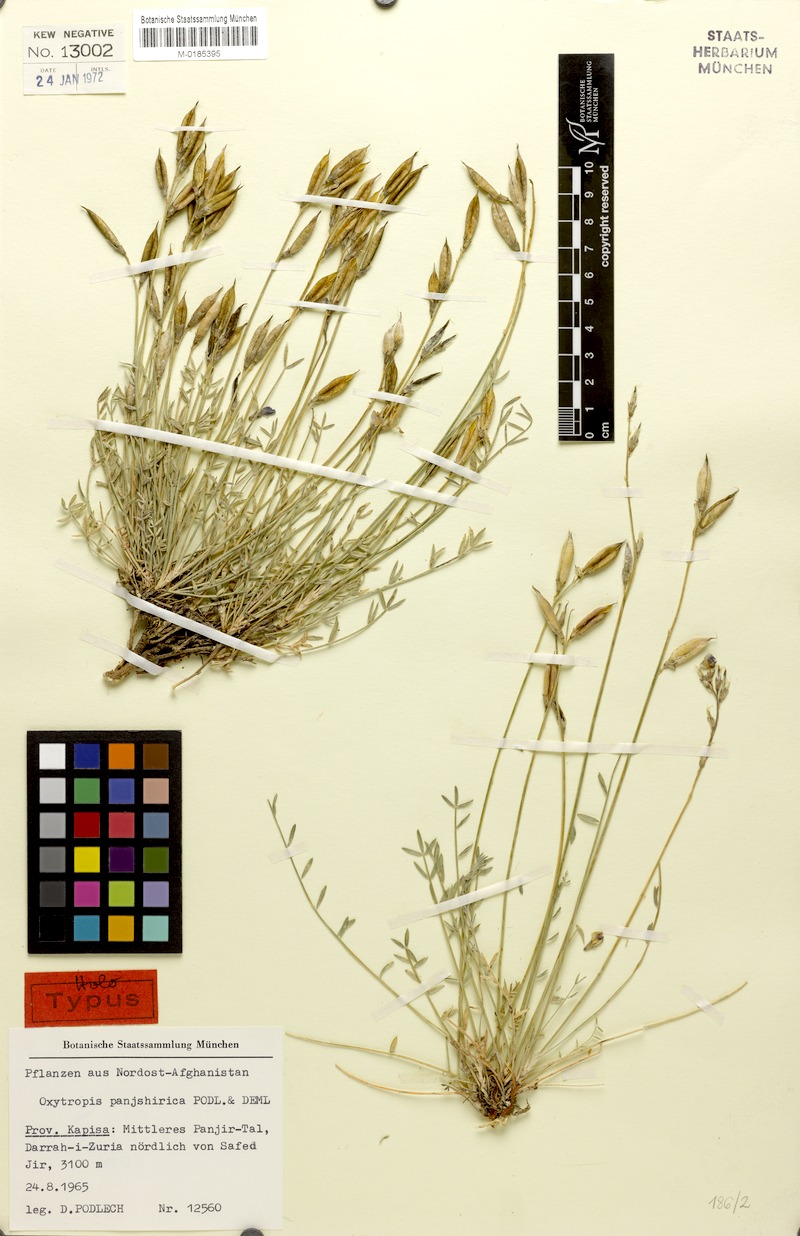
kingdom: Plantae
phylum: Tracheophyta
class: Magnoliopsida
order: Fabales
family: Fabaceae
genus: Oxytropis
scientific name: Oxytropis panjshirica
